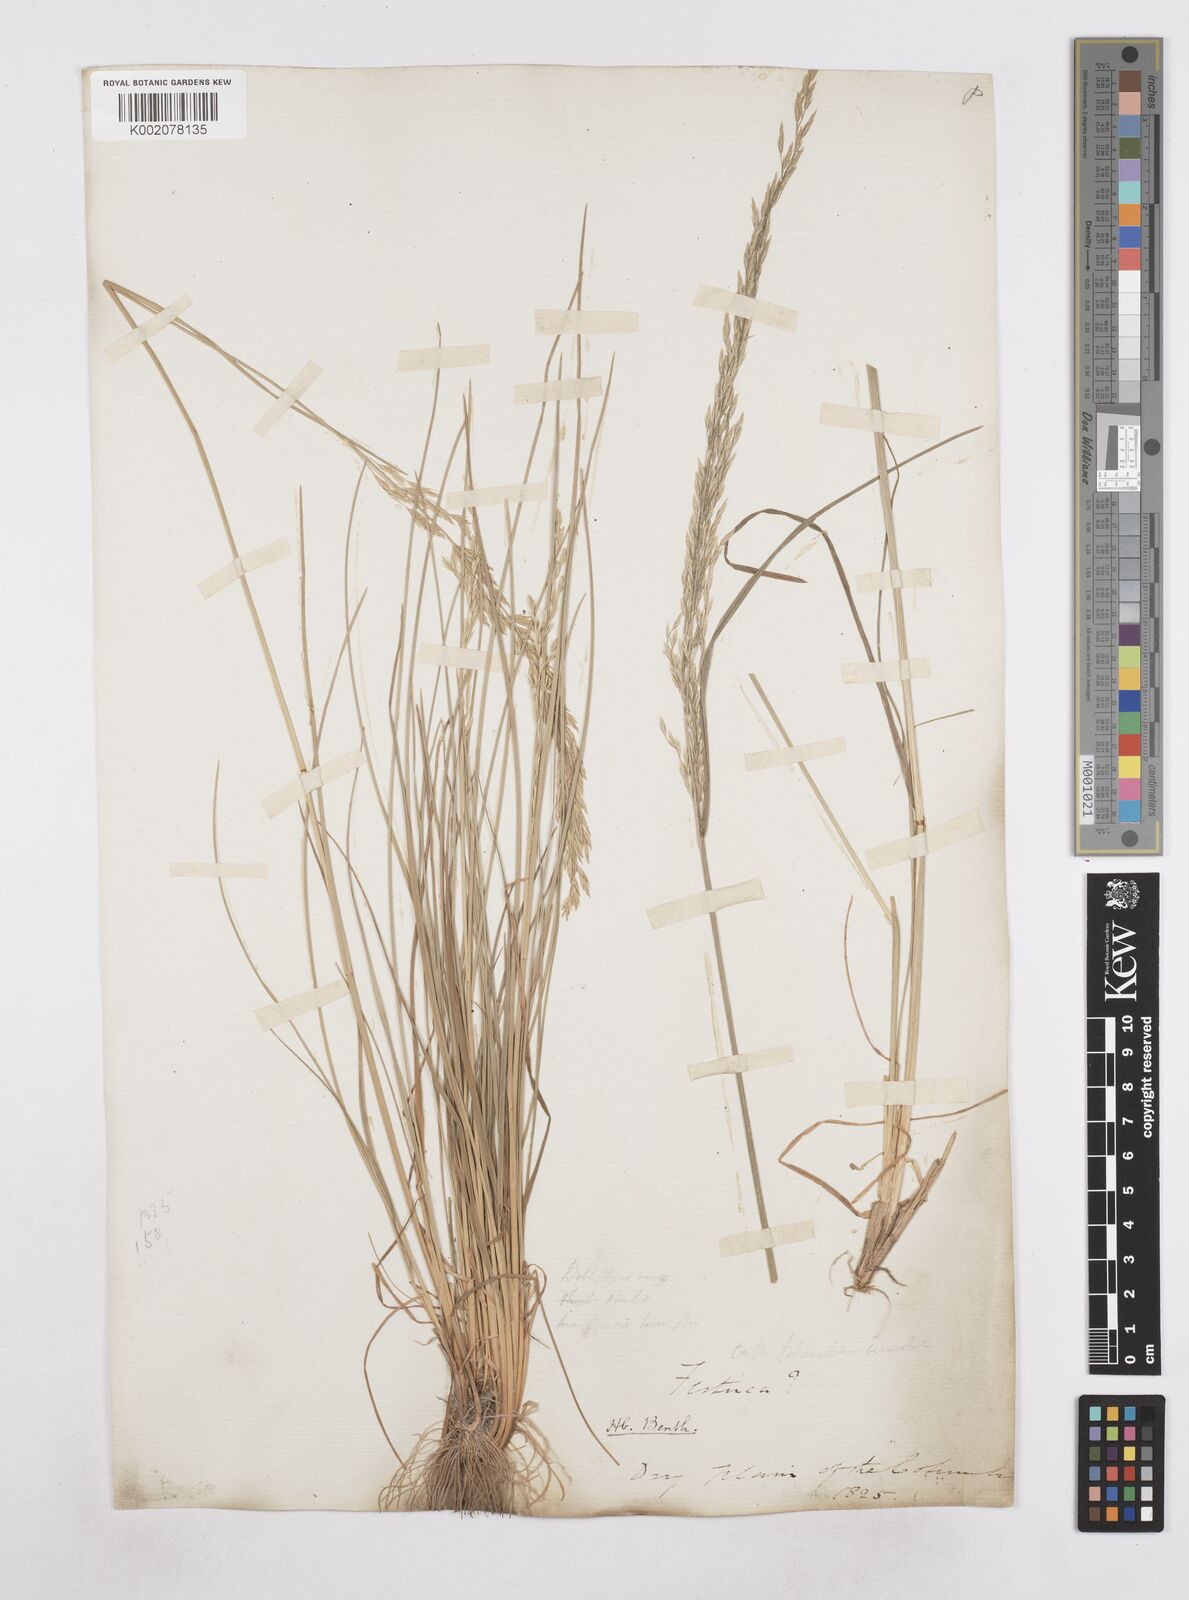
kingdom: Plantae
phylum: Tracheophyta
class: Liliopsida
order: Poales
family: Poaceae
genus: Poa
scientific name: Poa
